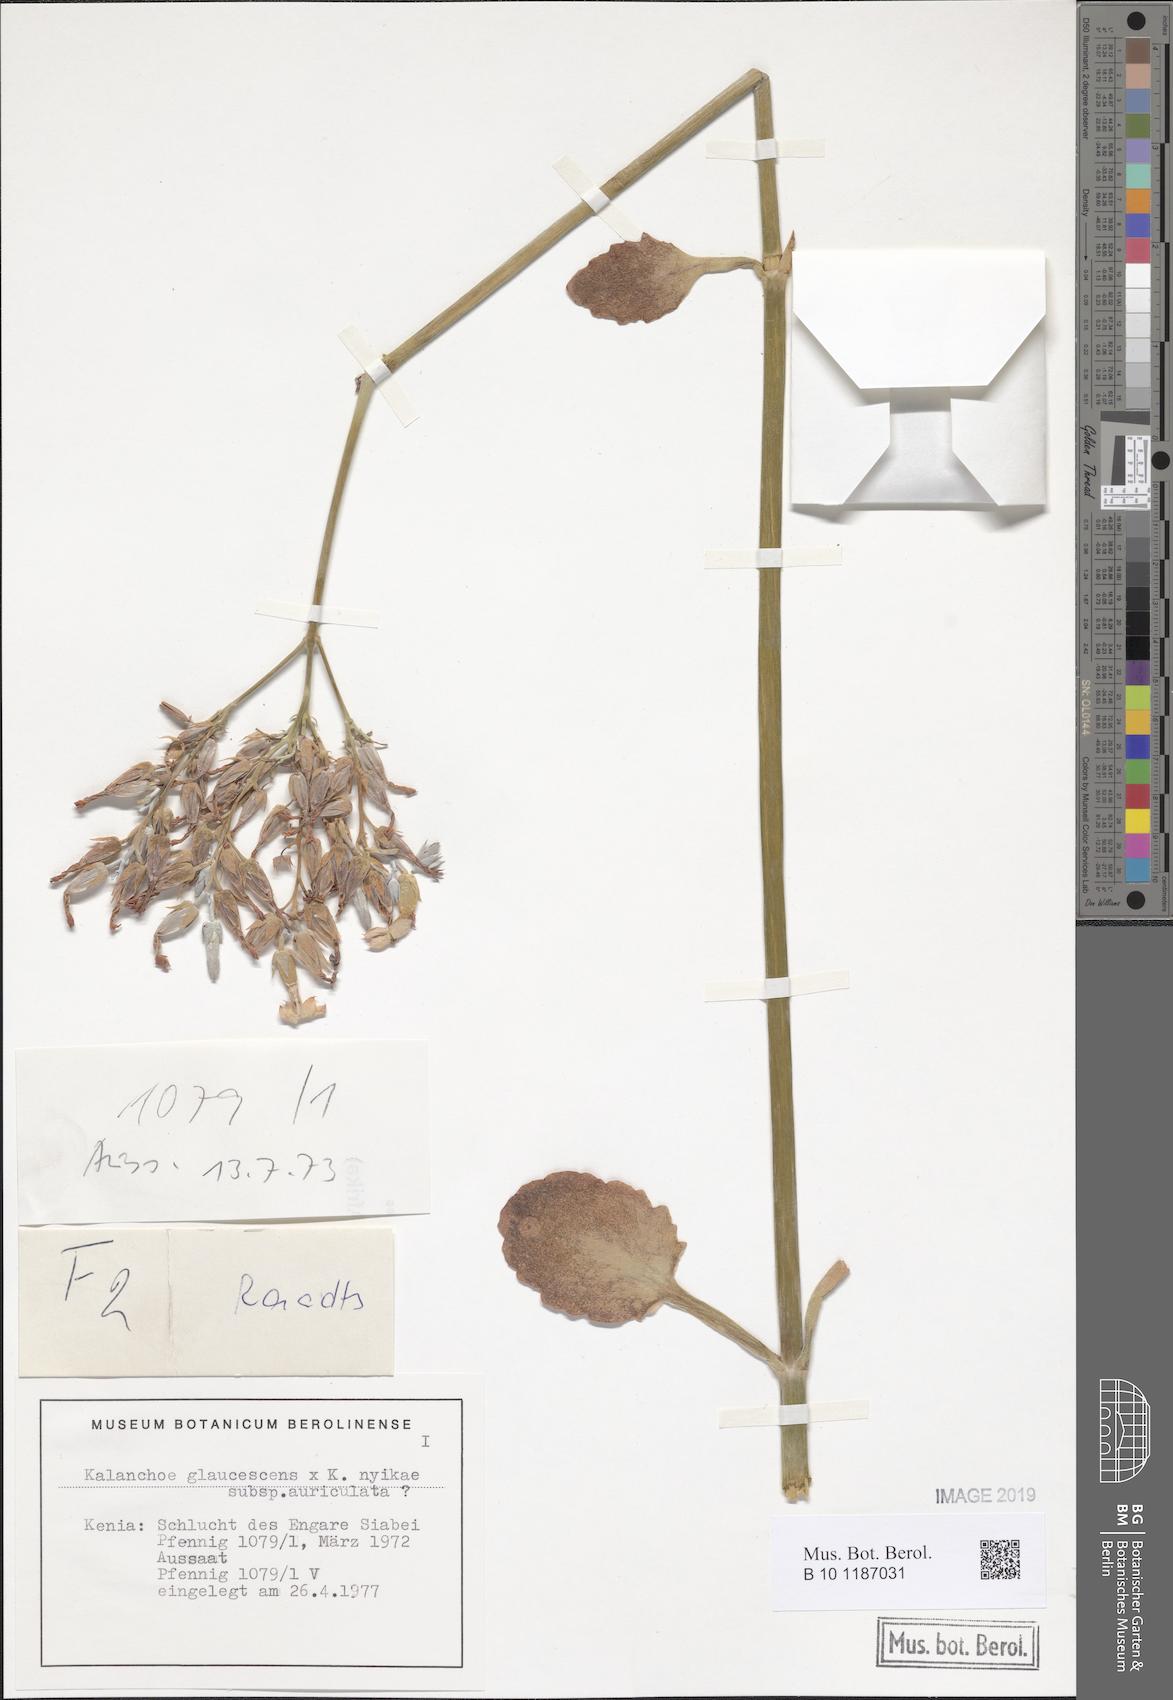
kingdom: Plantae
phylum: Tracheophyta
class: Magnoliopsida
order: Saxifragales
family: Crassulaceae
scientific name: Crassulaceae
